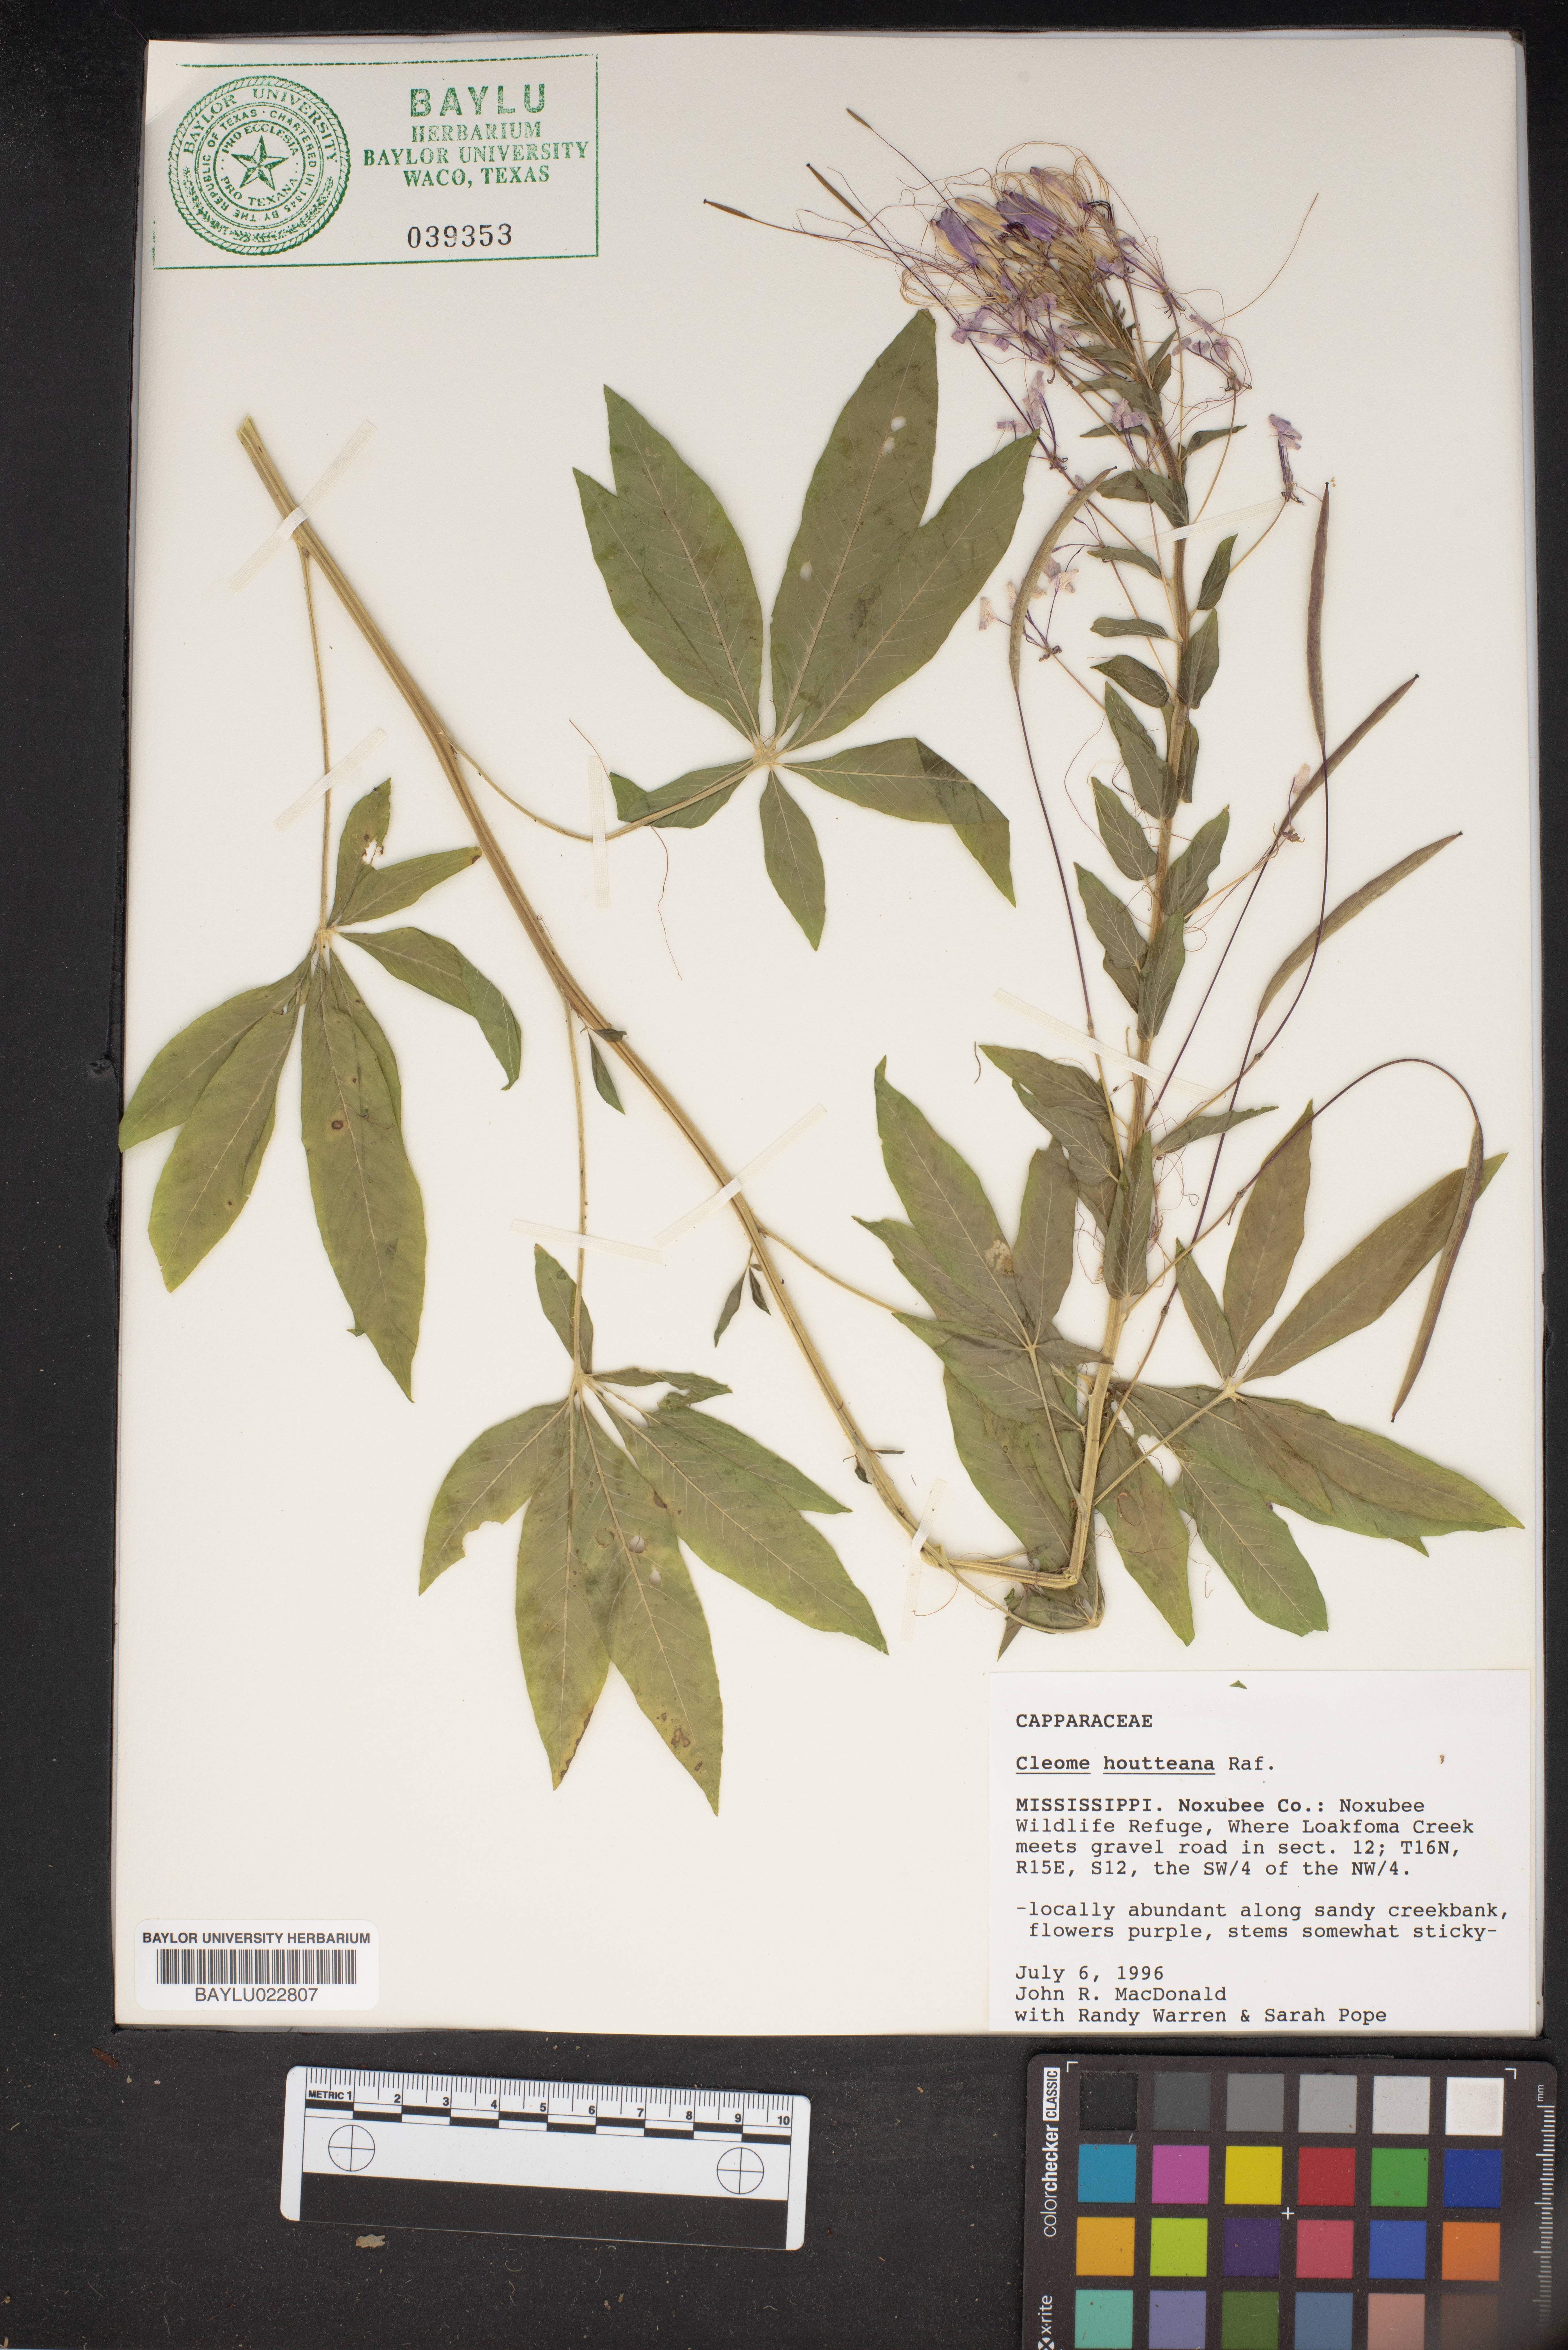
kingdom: Plantae
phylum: Tracheophyta
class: Magnoliopsida
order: Brassicales
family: Cleomaceae
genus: Tarenaya
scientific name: Tarenaya houtteana
